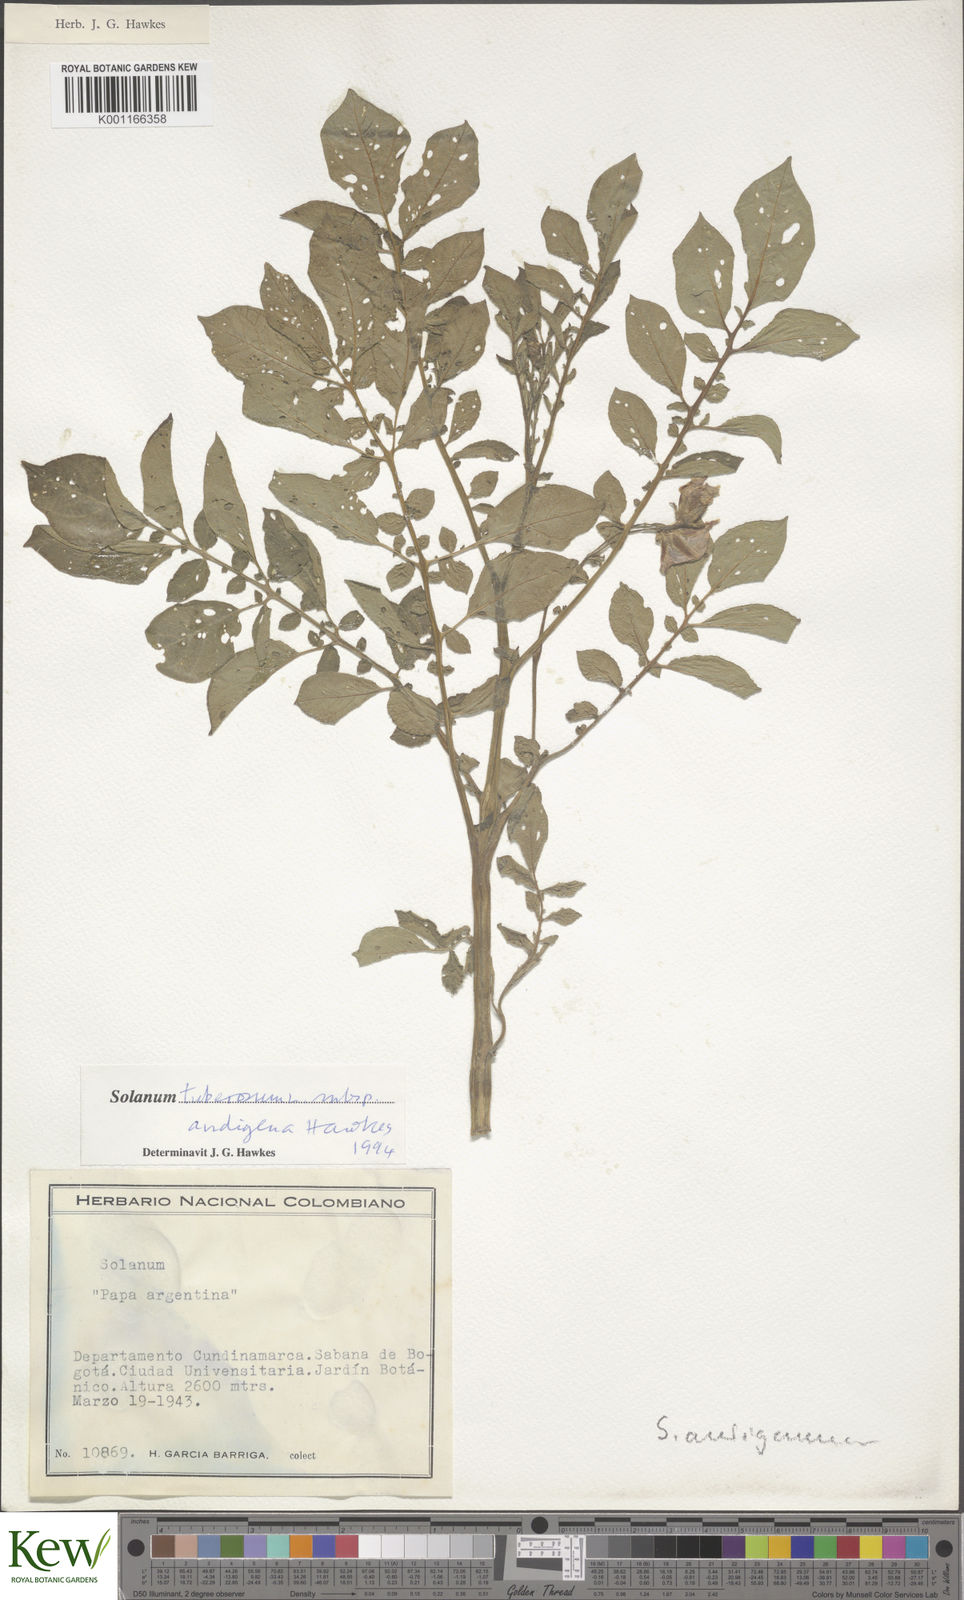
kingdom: Plantae
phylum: Tracheophyta
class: Magnoliopsida
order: Solanales
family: Solanaceae
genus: Solanum
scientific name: Solanum tuberosum
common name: Potato
